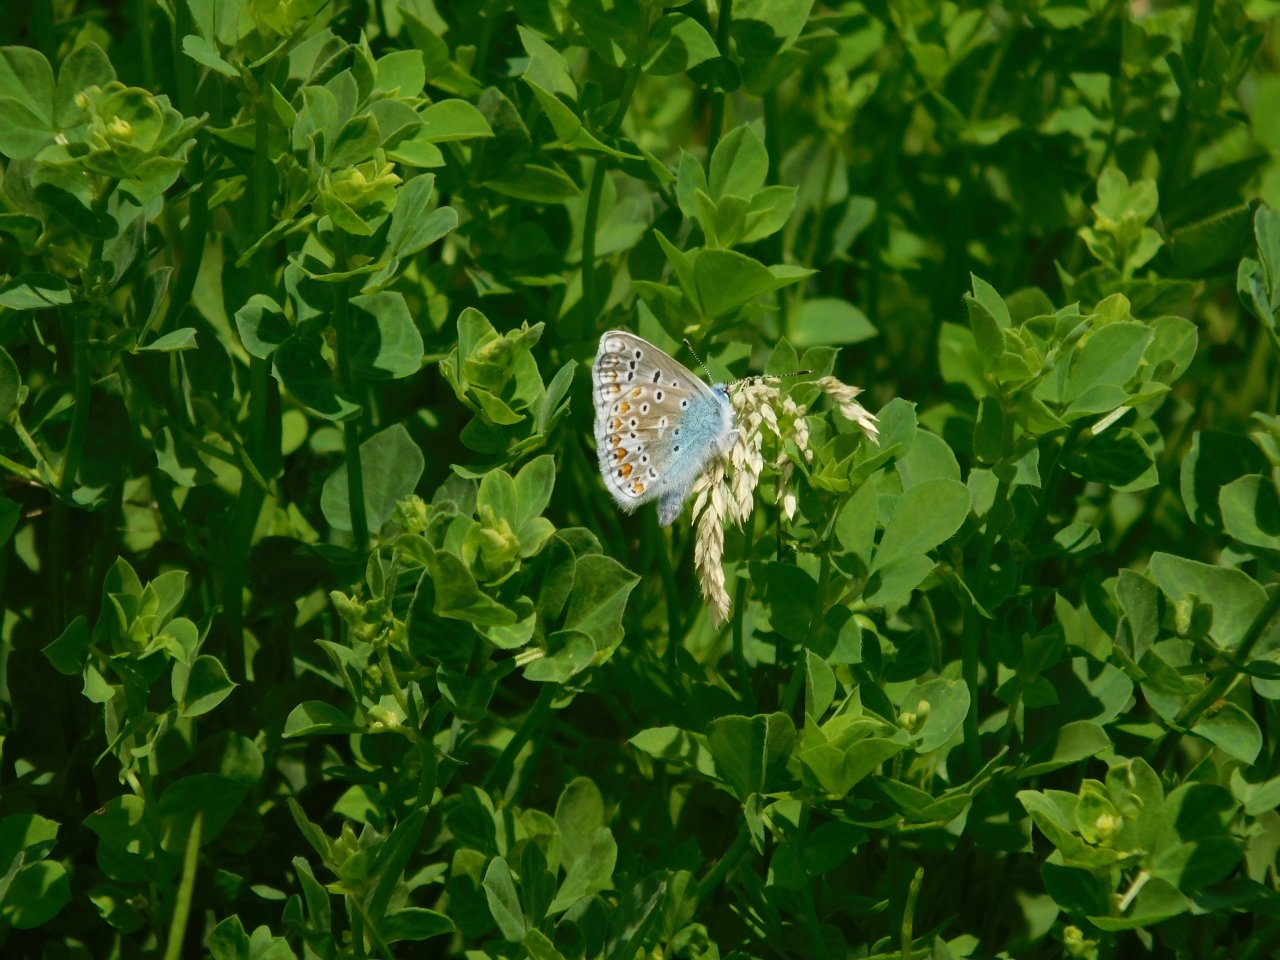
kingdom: Animalia
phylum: Arthropoda
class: Insecta
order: Lepidoptera
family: Lycaenidae
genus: Polyommatus
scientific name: Polyommatus icarus
